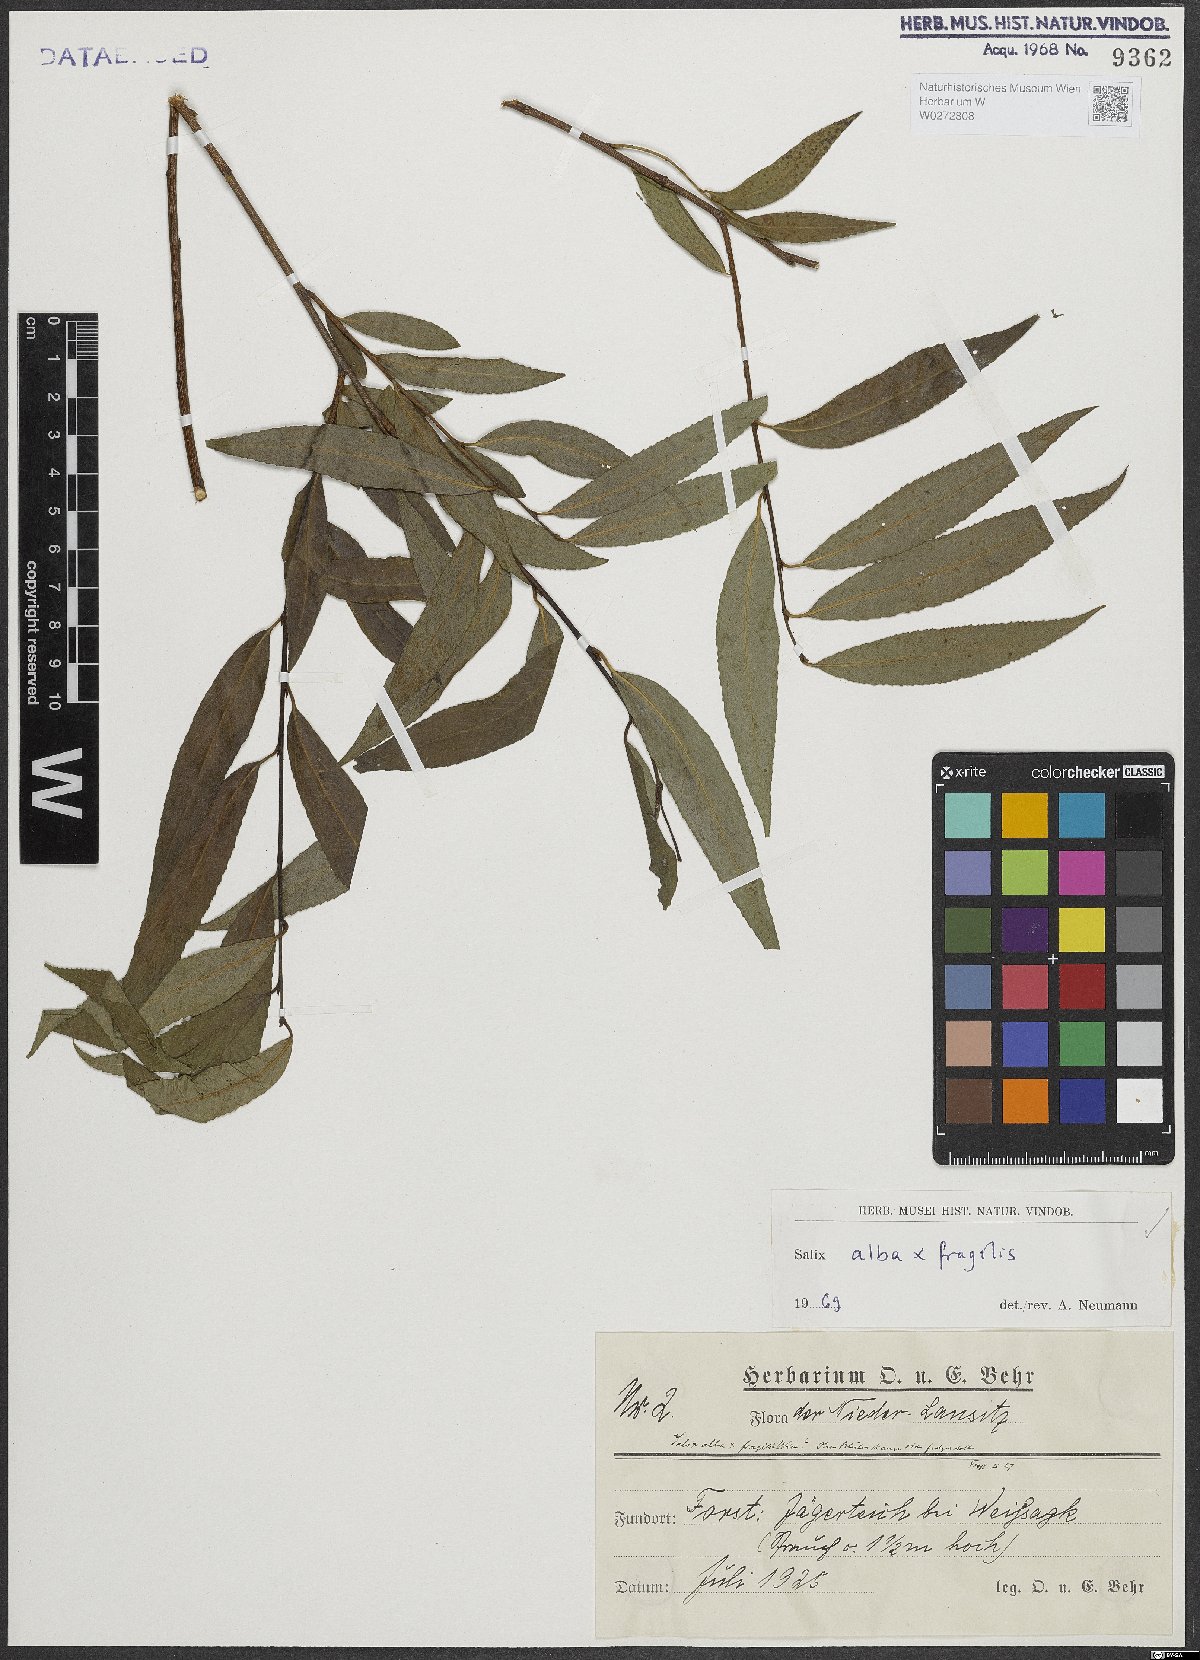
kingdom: Plantae
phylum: Tracheophyta
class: Magnoliopsida
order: Malpighiales
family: Salicaceae
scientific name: Salicaceae
